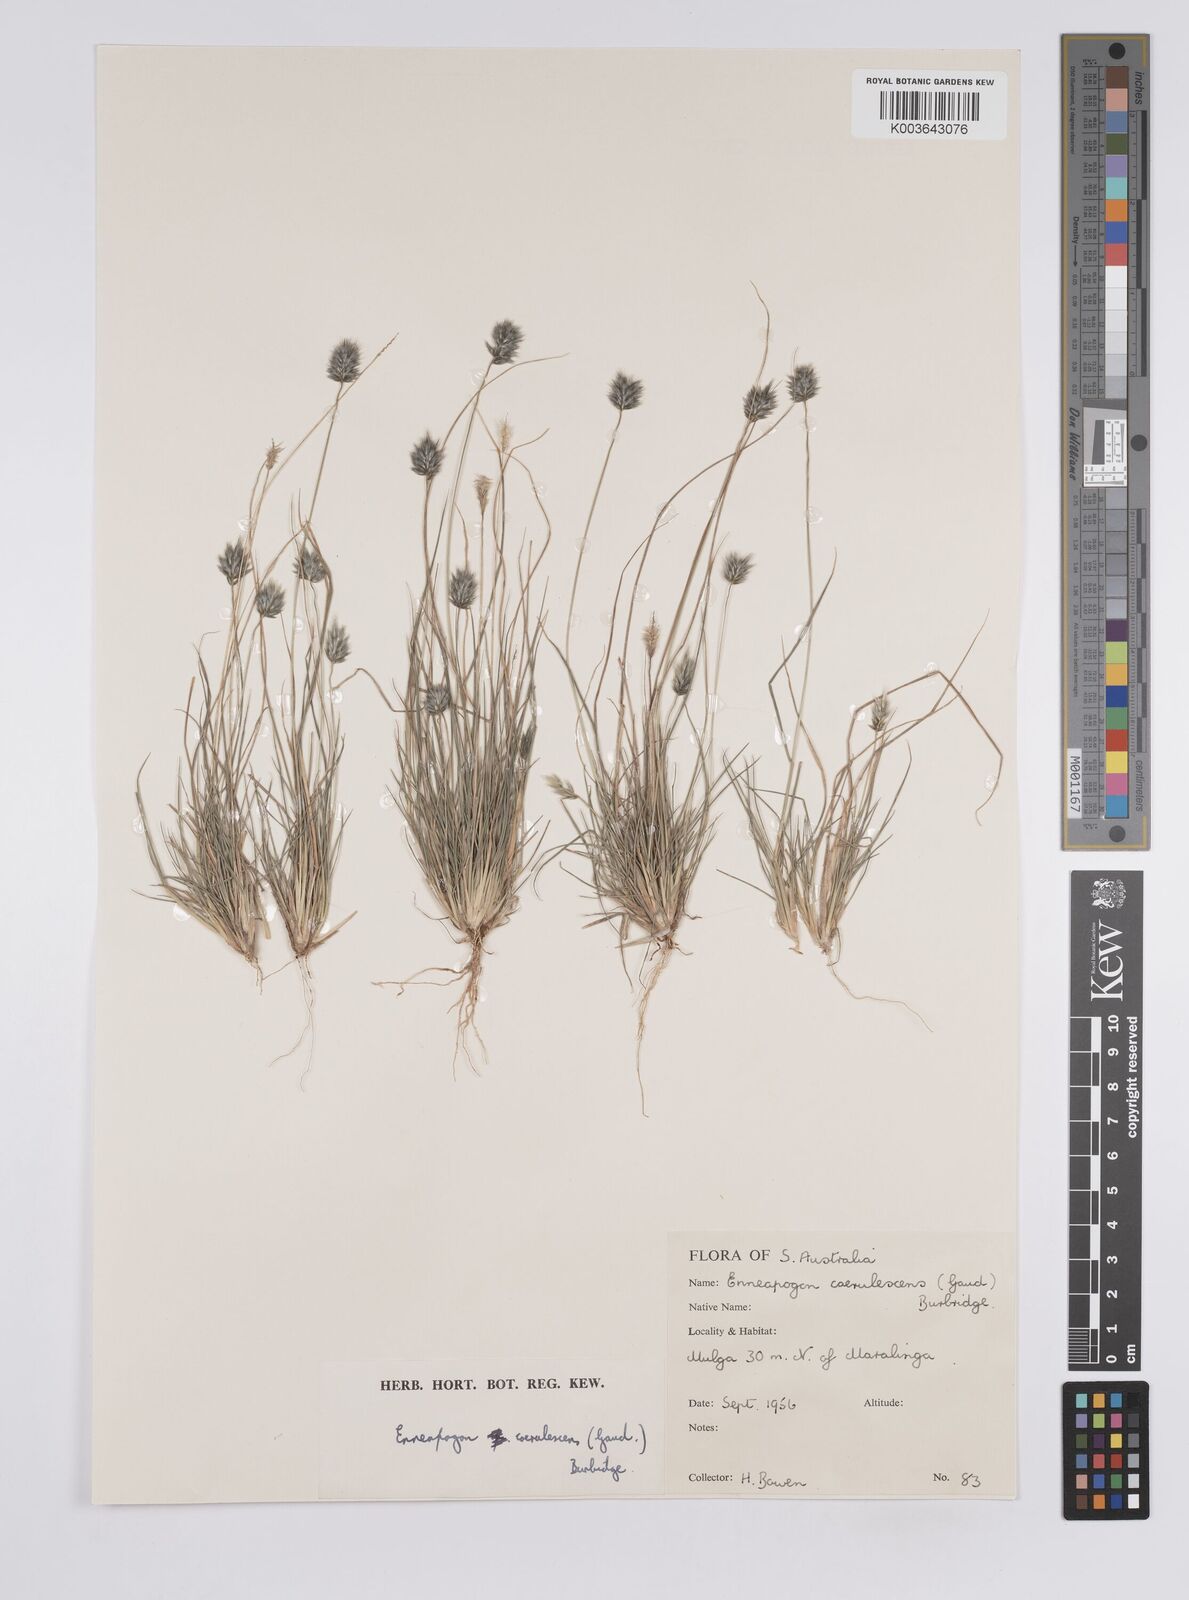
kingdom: Plantae
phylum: Tracheophyta
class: Liliopsida
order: Poales
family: Poaceae
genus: Enneapogon
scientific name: Enneapogon caerulescens
